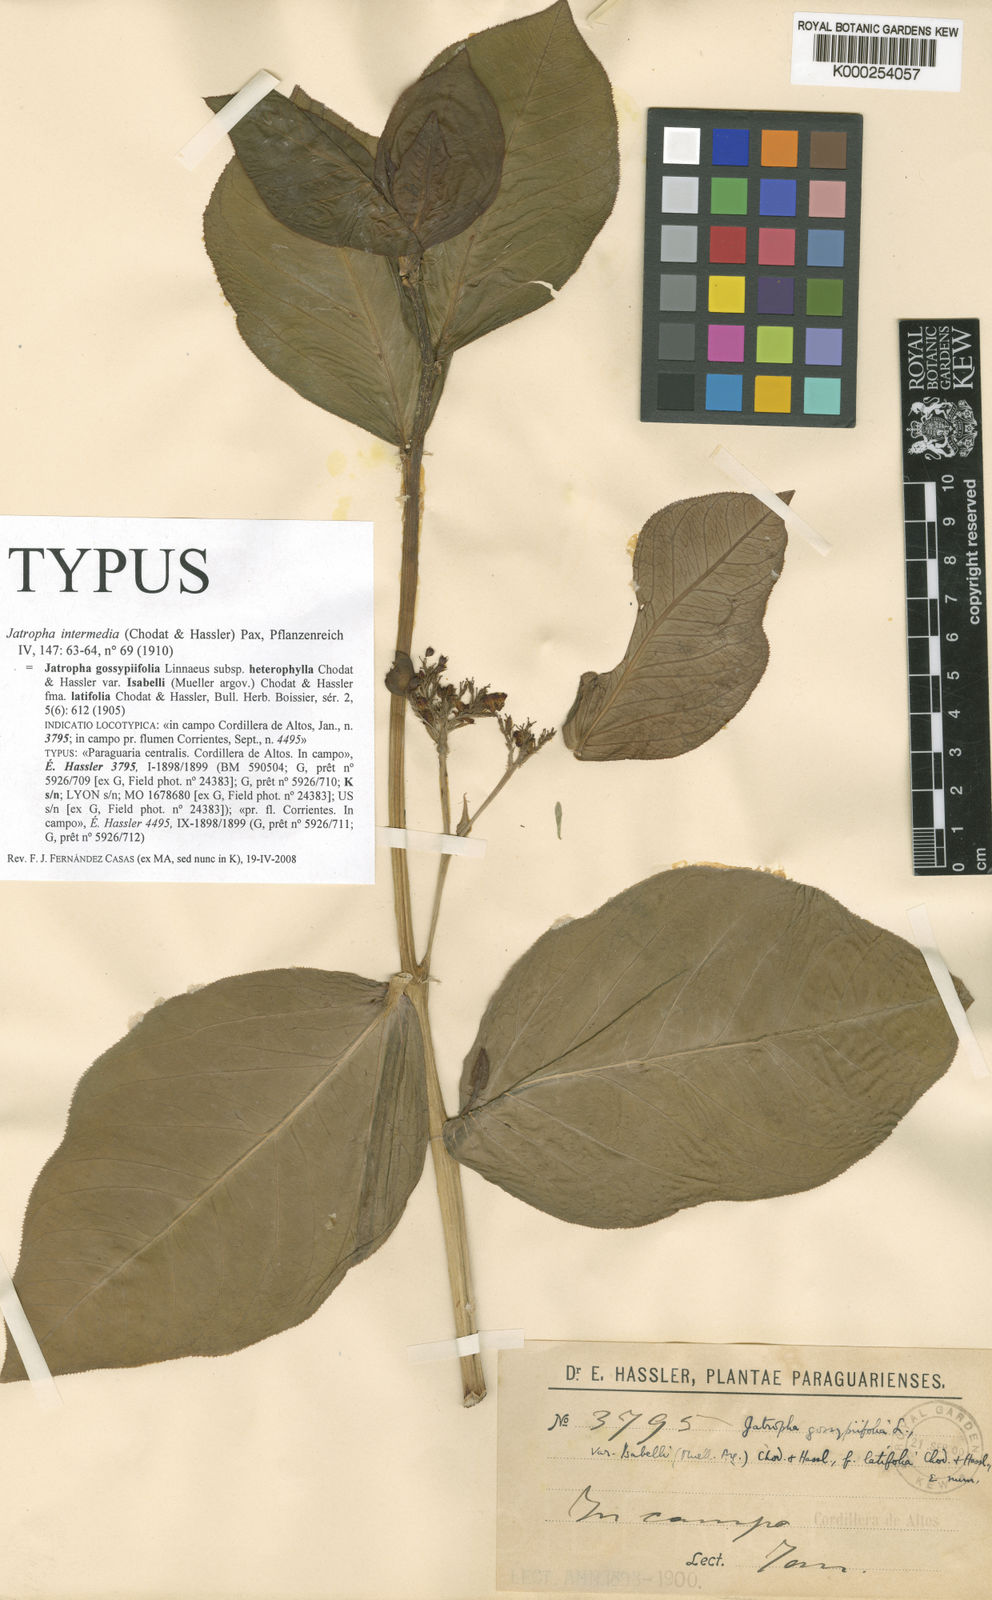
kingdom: Plantae
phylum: Tracheophyta
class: Magnoliopsida
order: Malpighiales
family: Euphorbiaceae
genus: Jatropha
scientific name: Jatropha intermedia
